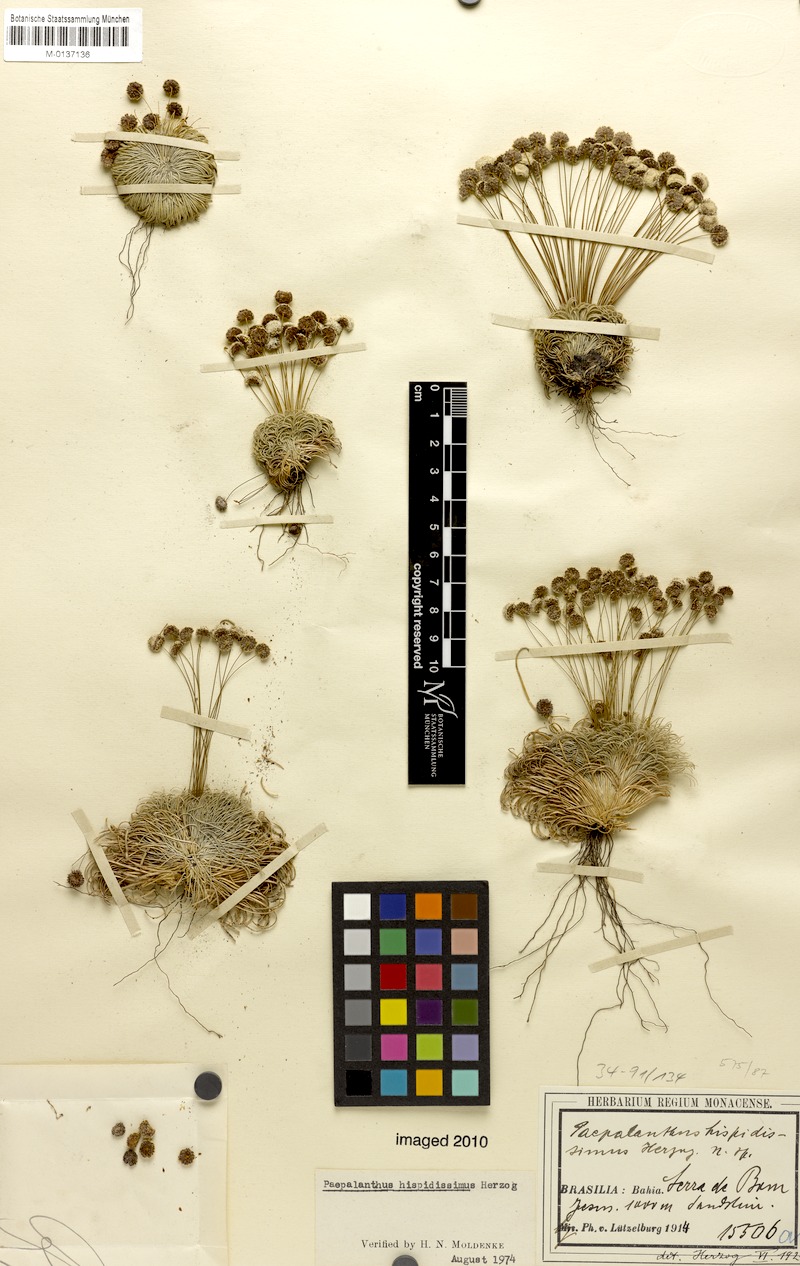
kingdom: Plantae
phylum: Tracheophyta
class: Liliopsida
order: Poales
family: Eriocaulaceae
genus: Paepalanthus
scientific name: Paepalanthus pulvinatus
